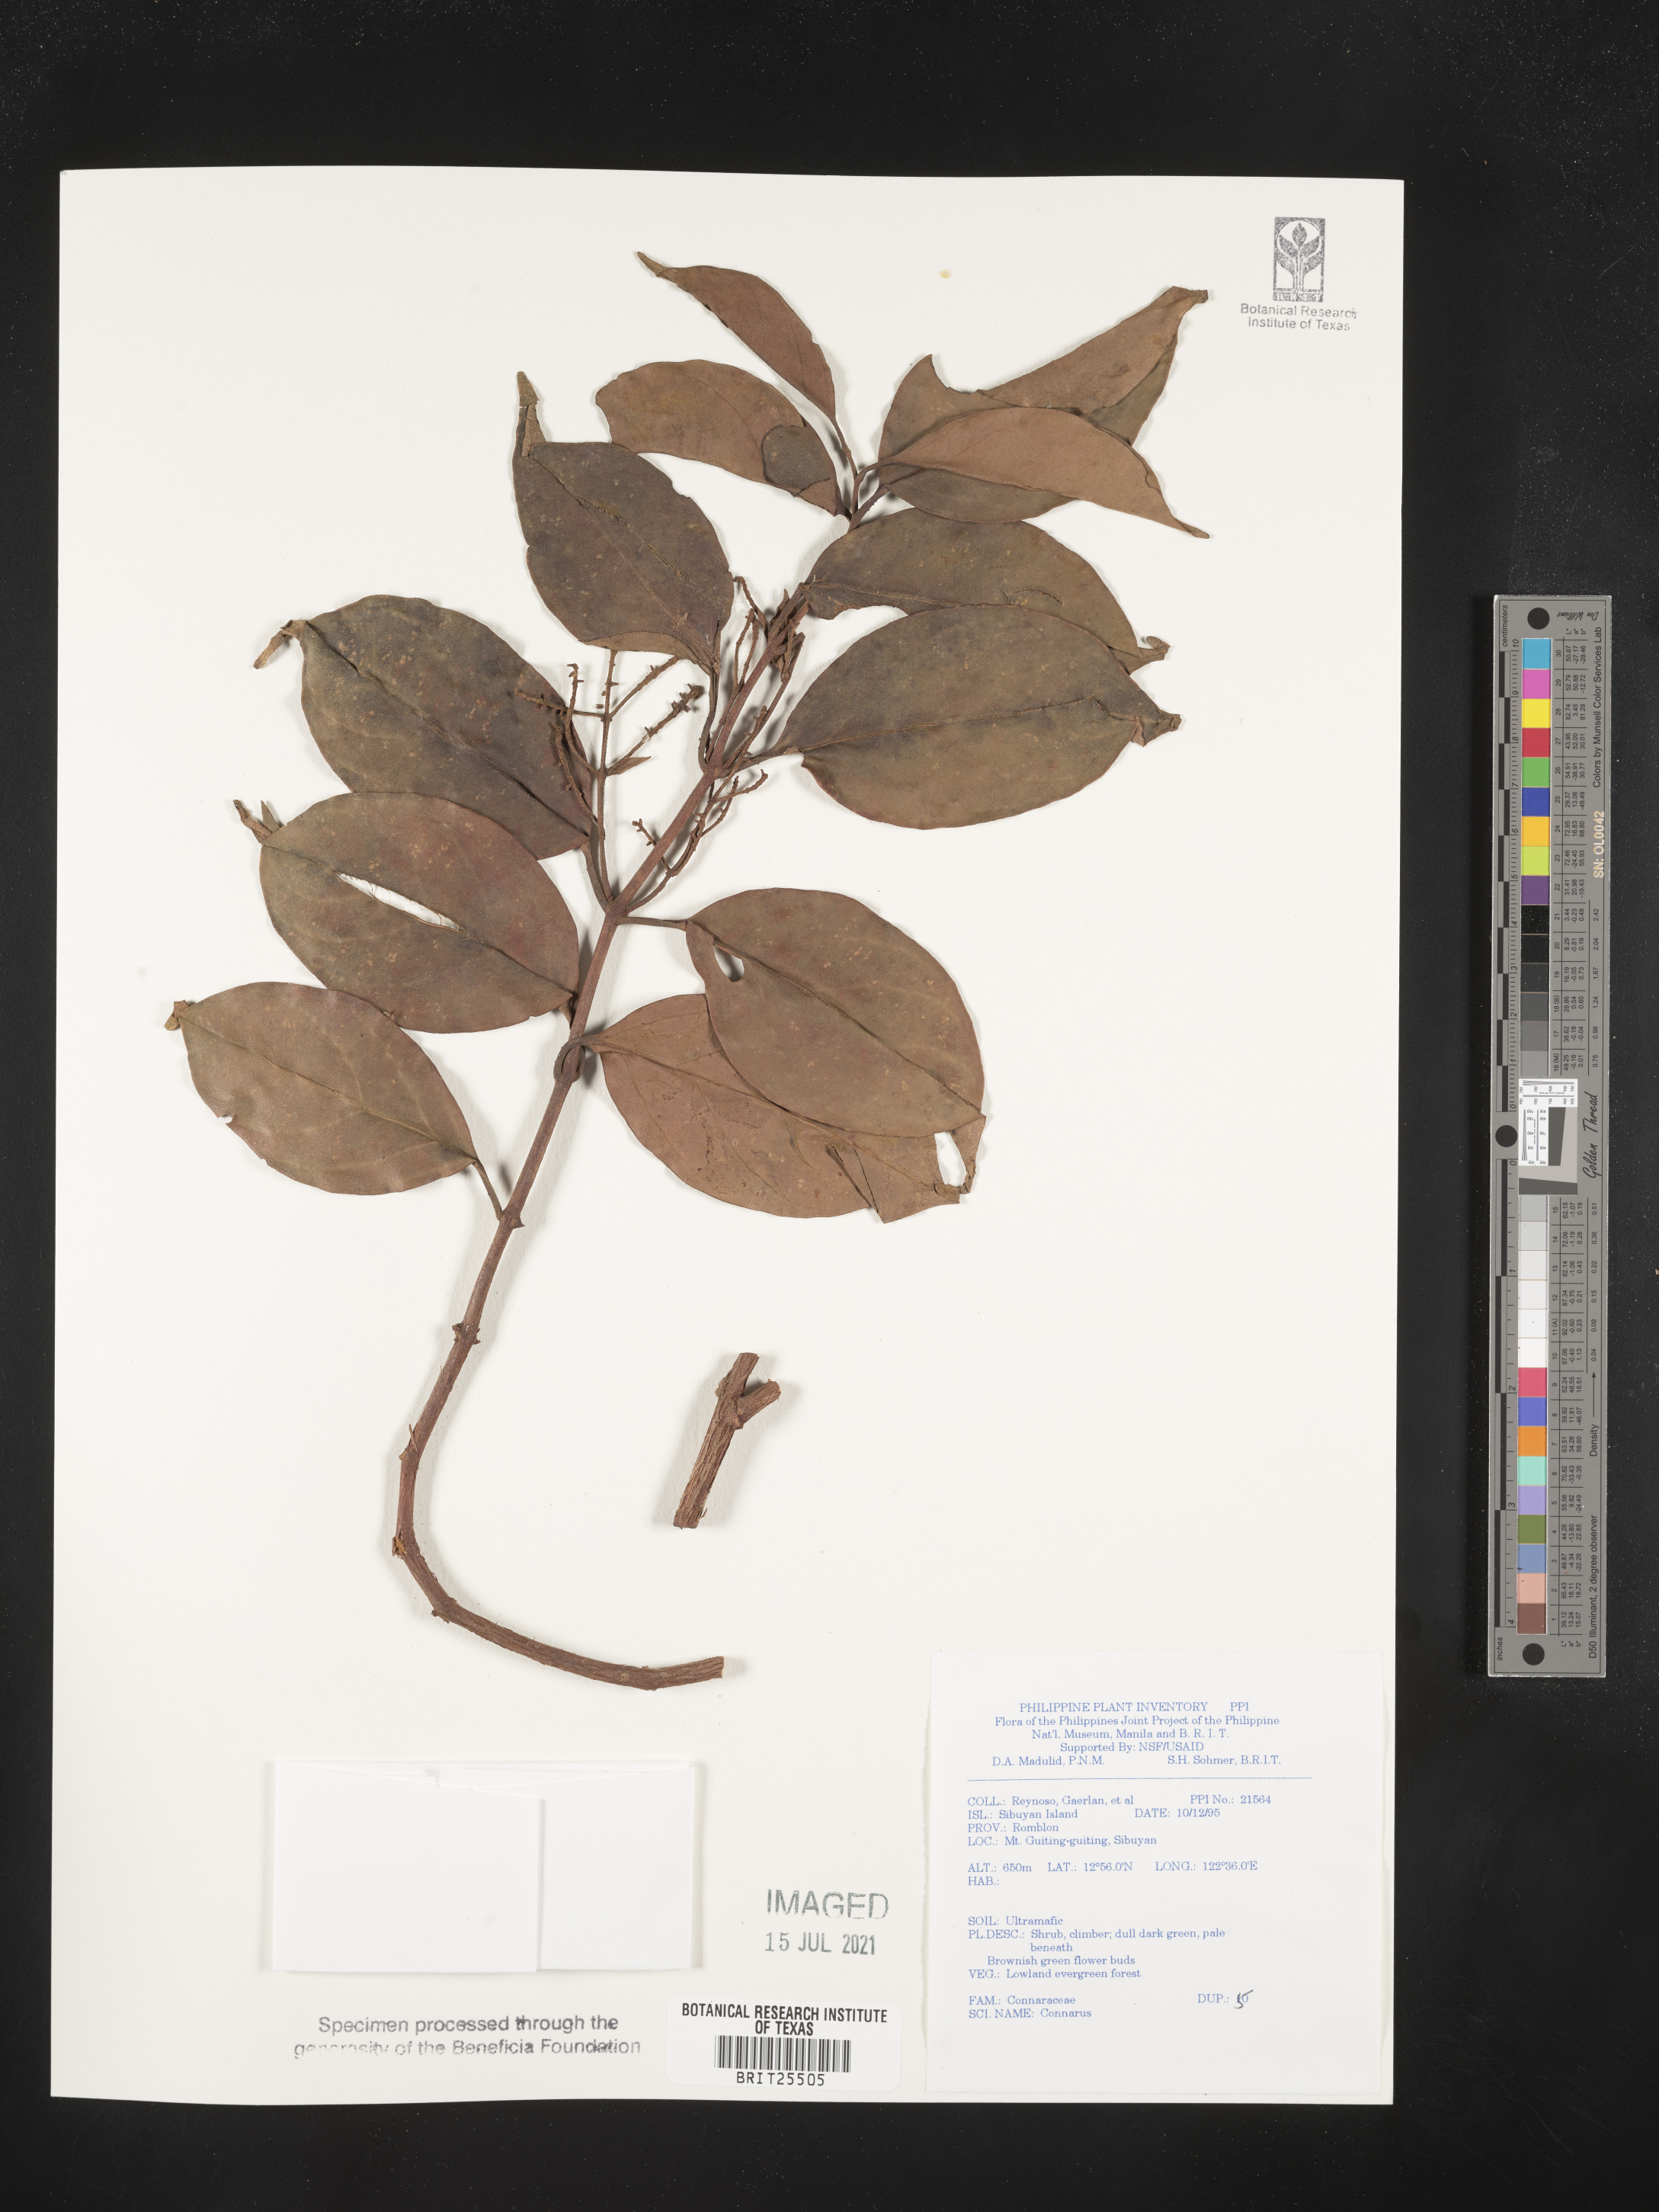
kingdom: Plantae
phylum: Tracheophyta
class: Magnoliopsida
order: Oxalidales
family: Connaraceae
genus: Connarus
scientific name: Connarus
